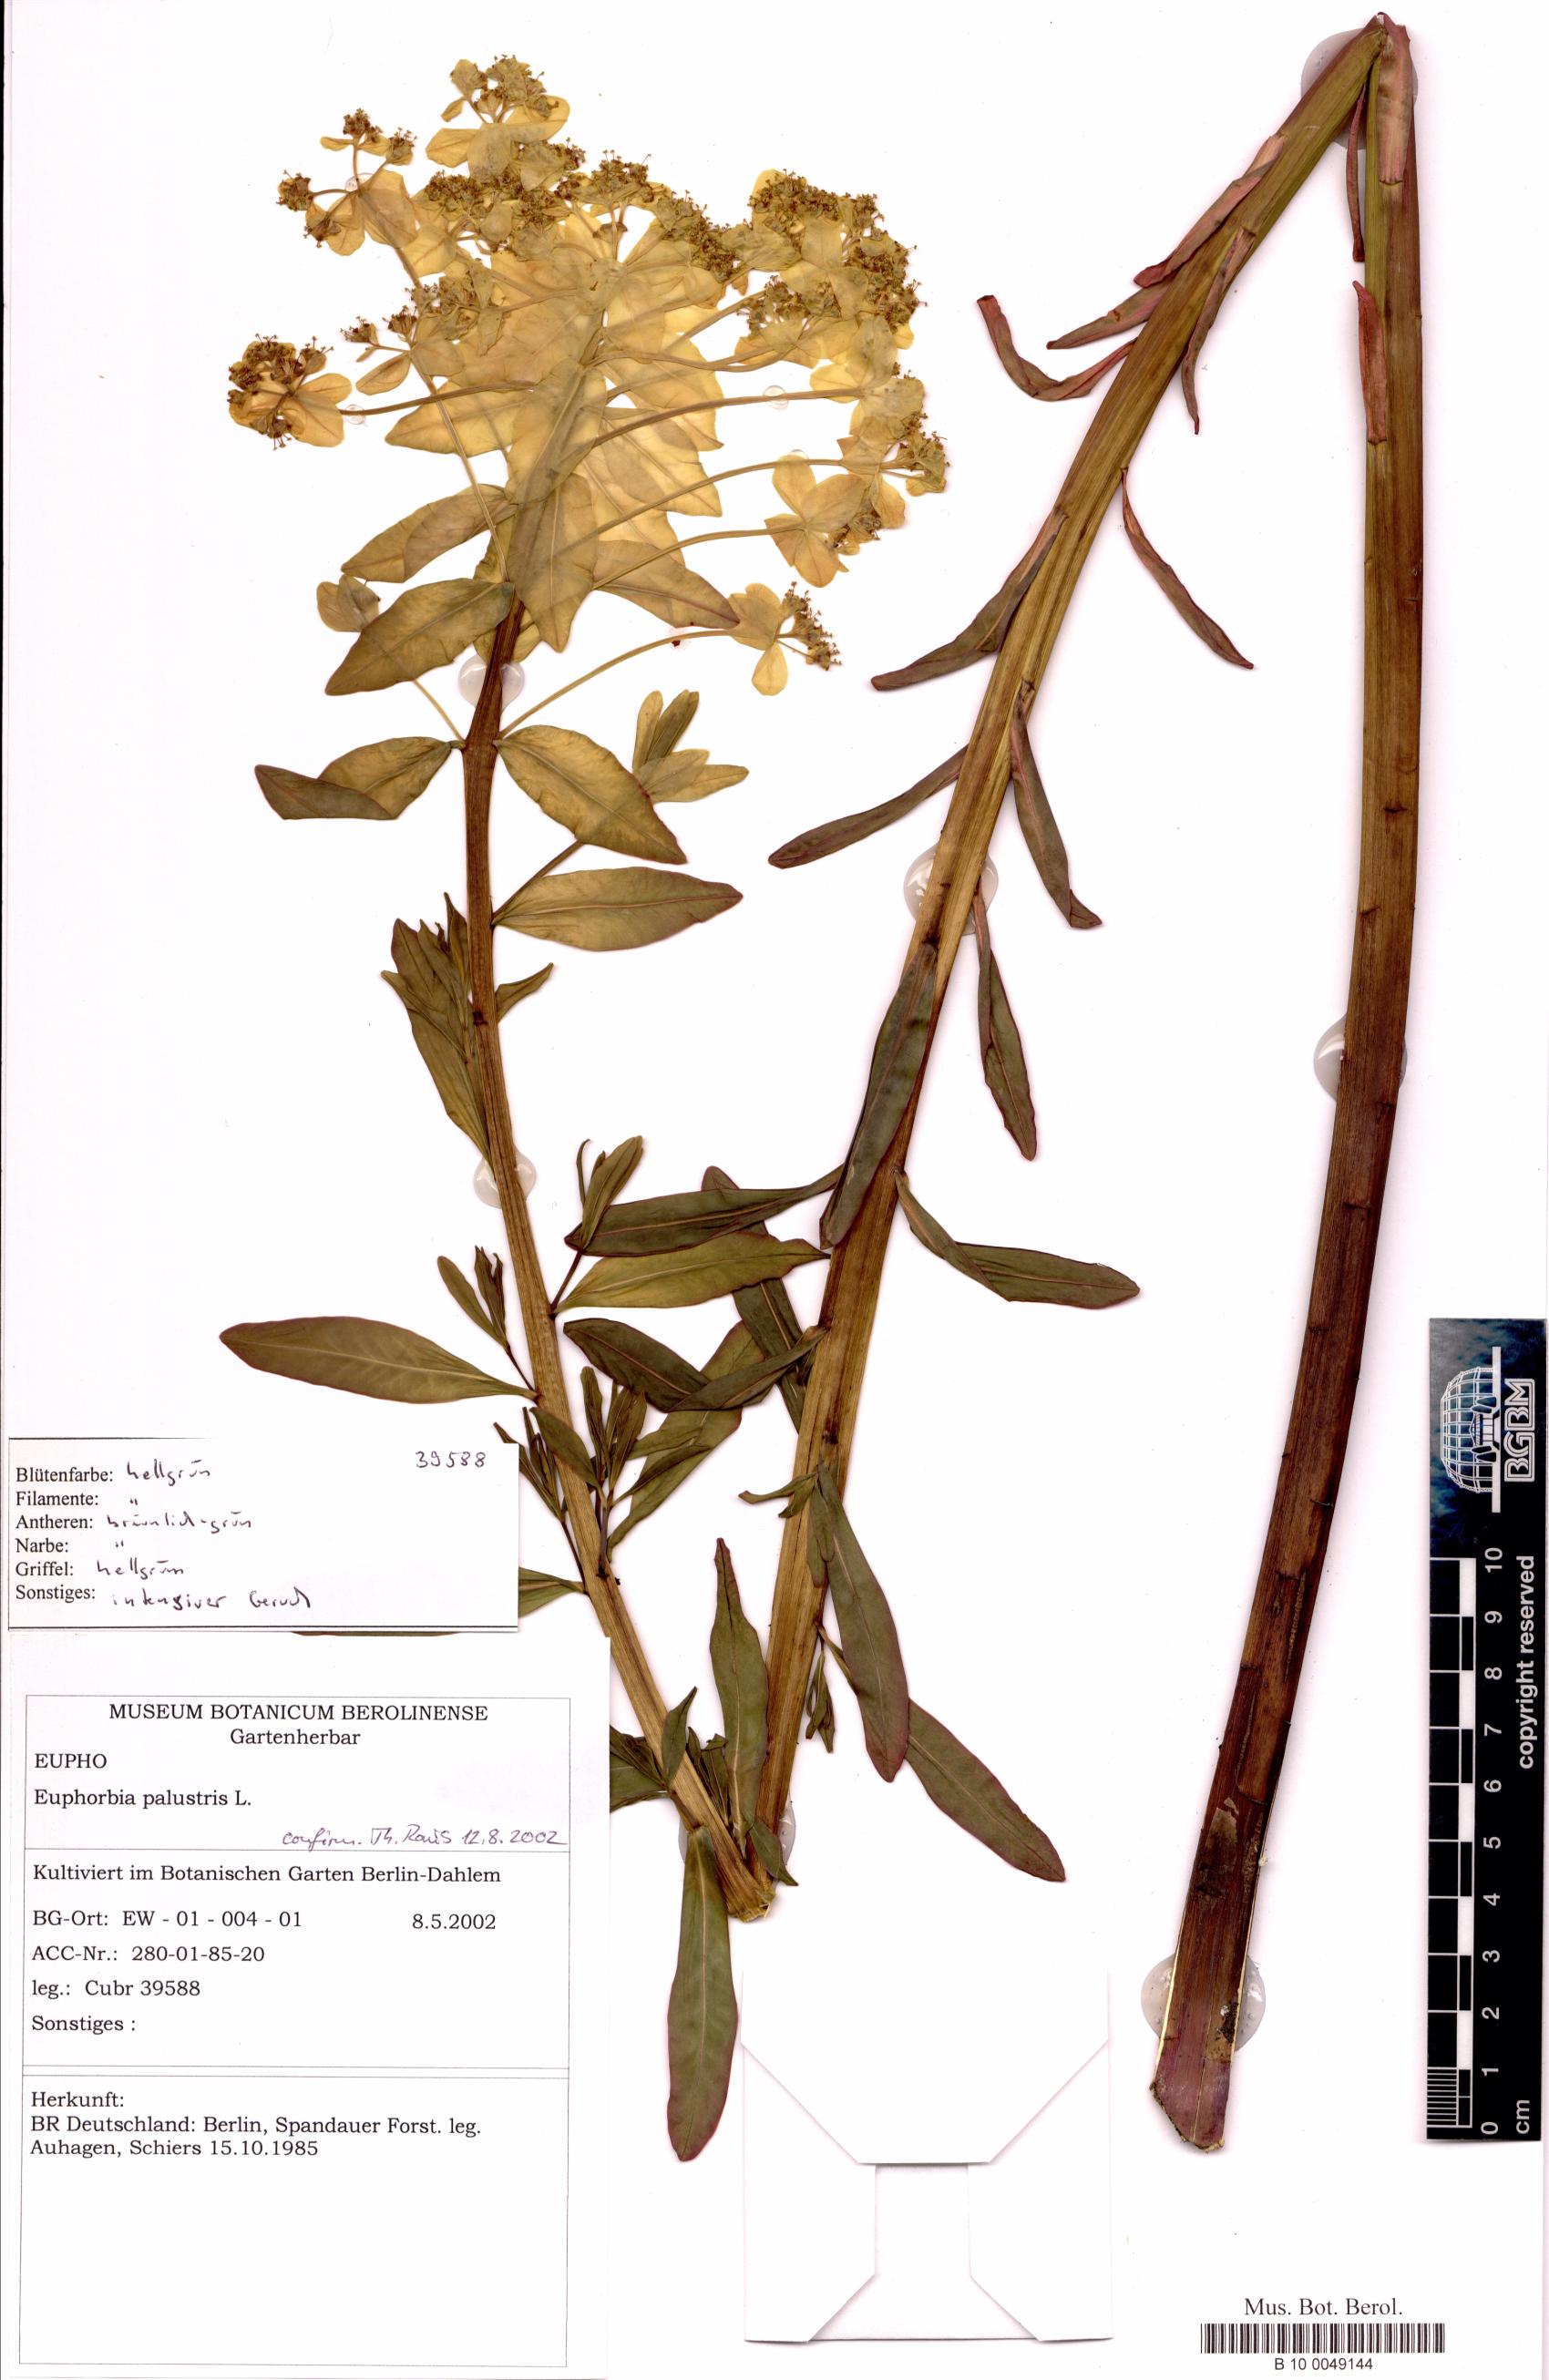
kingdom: Plantae
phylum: Tracheophyta
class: Magnoliopsida
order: Malpighiales
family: Euphorbiaceae
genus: Euphorbia
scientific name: Euphorbia palustris
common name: Marsh spurge
